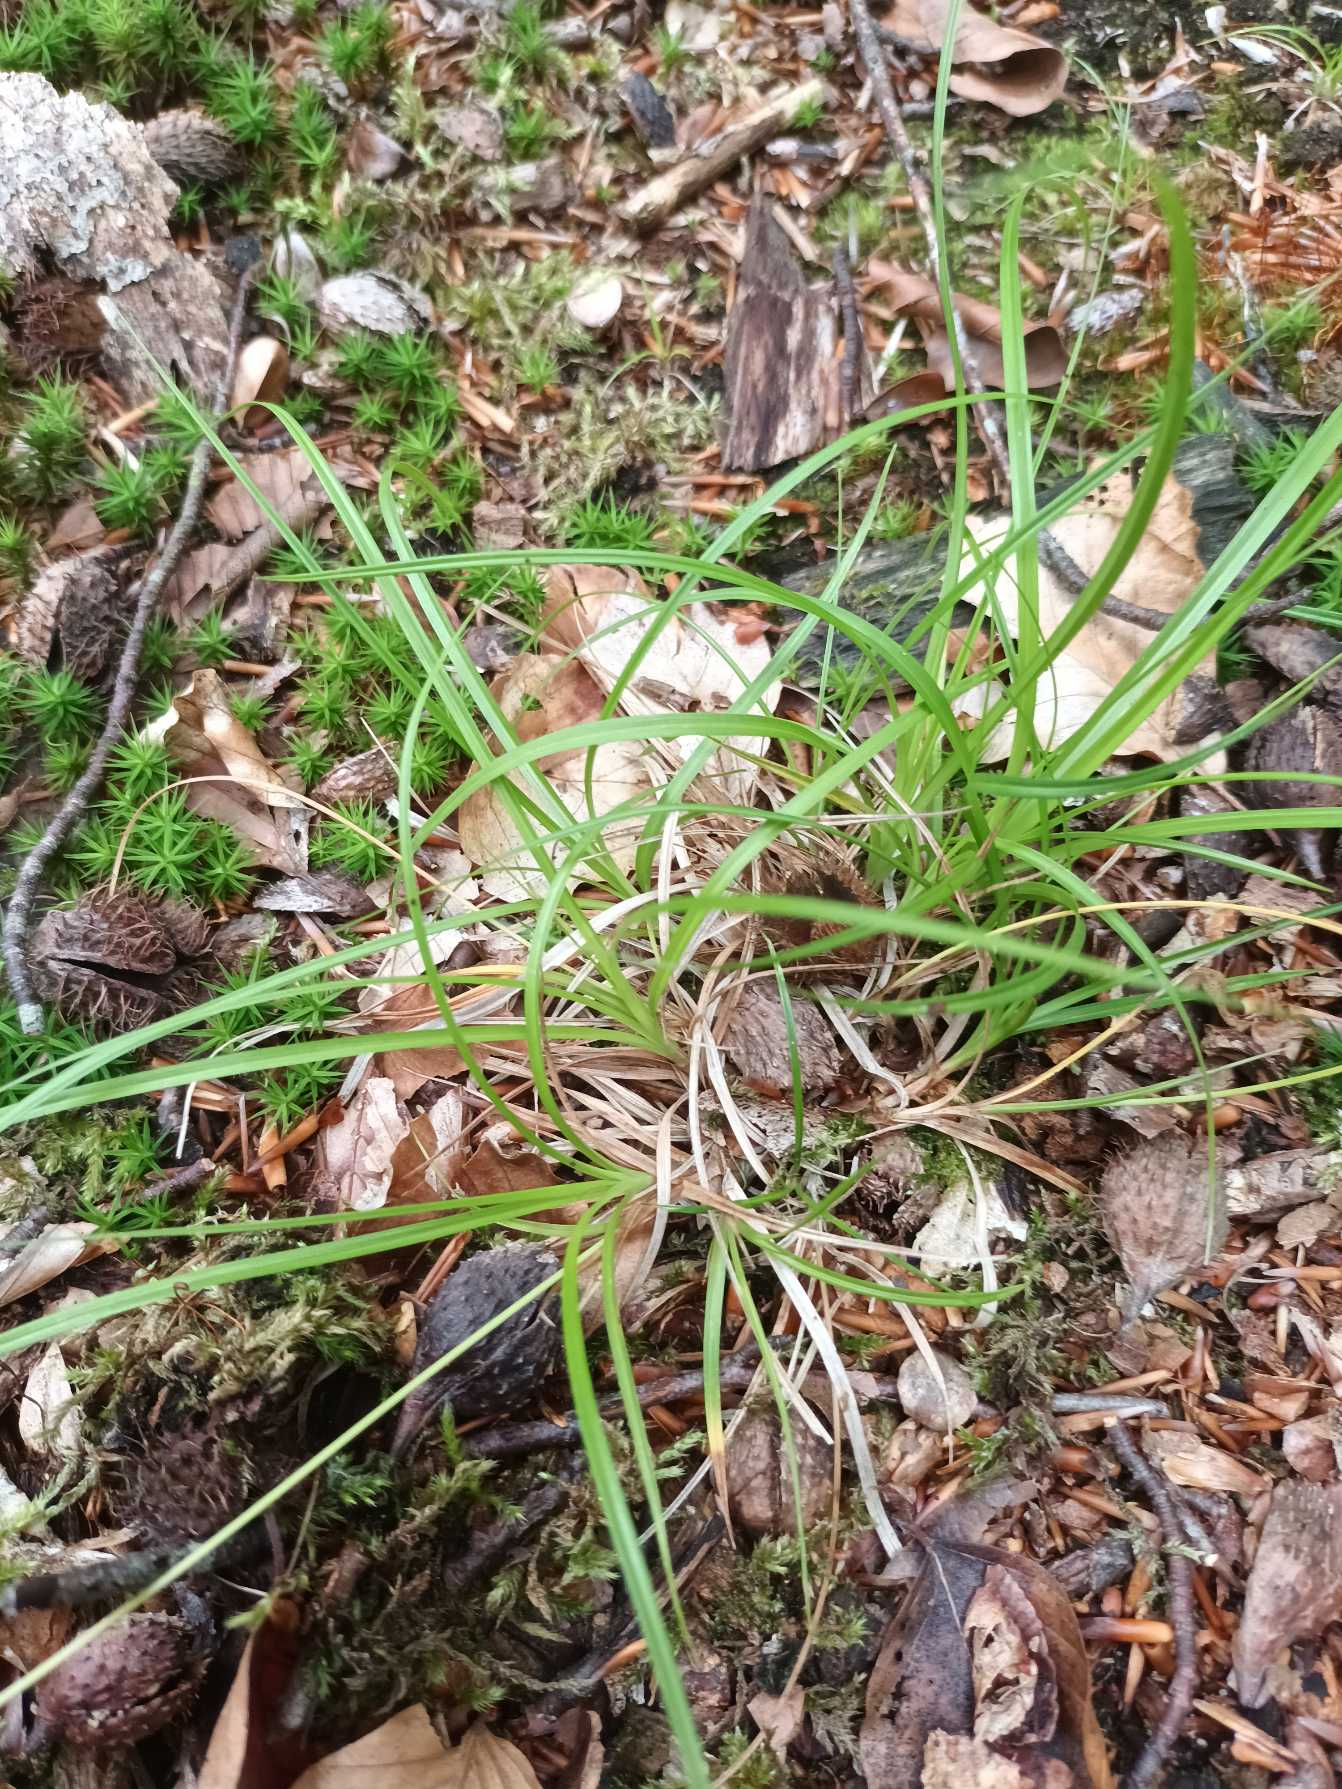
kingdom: Plantae
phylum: Tracheophyta
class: Liliopsida
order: Poales
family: Cyperaceae
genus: Carex
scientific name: Carex pilulifera
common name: Pille-star
